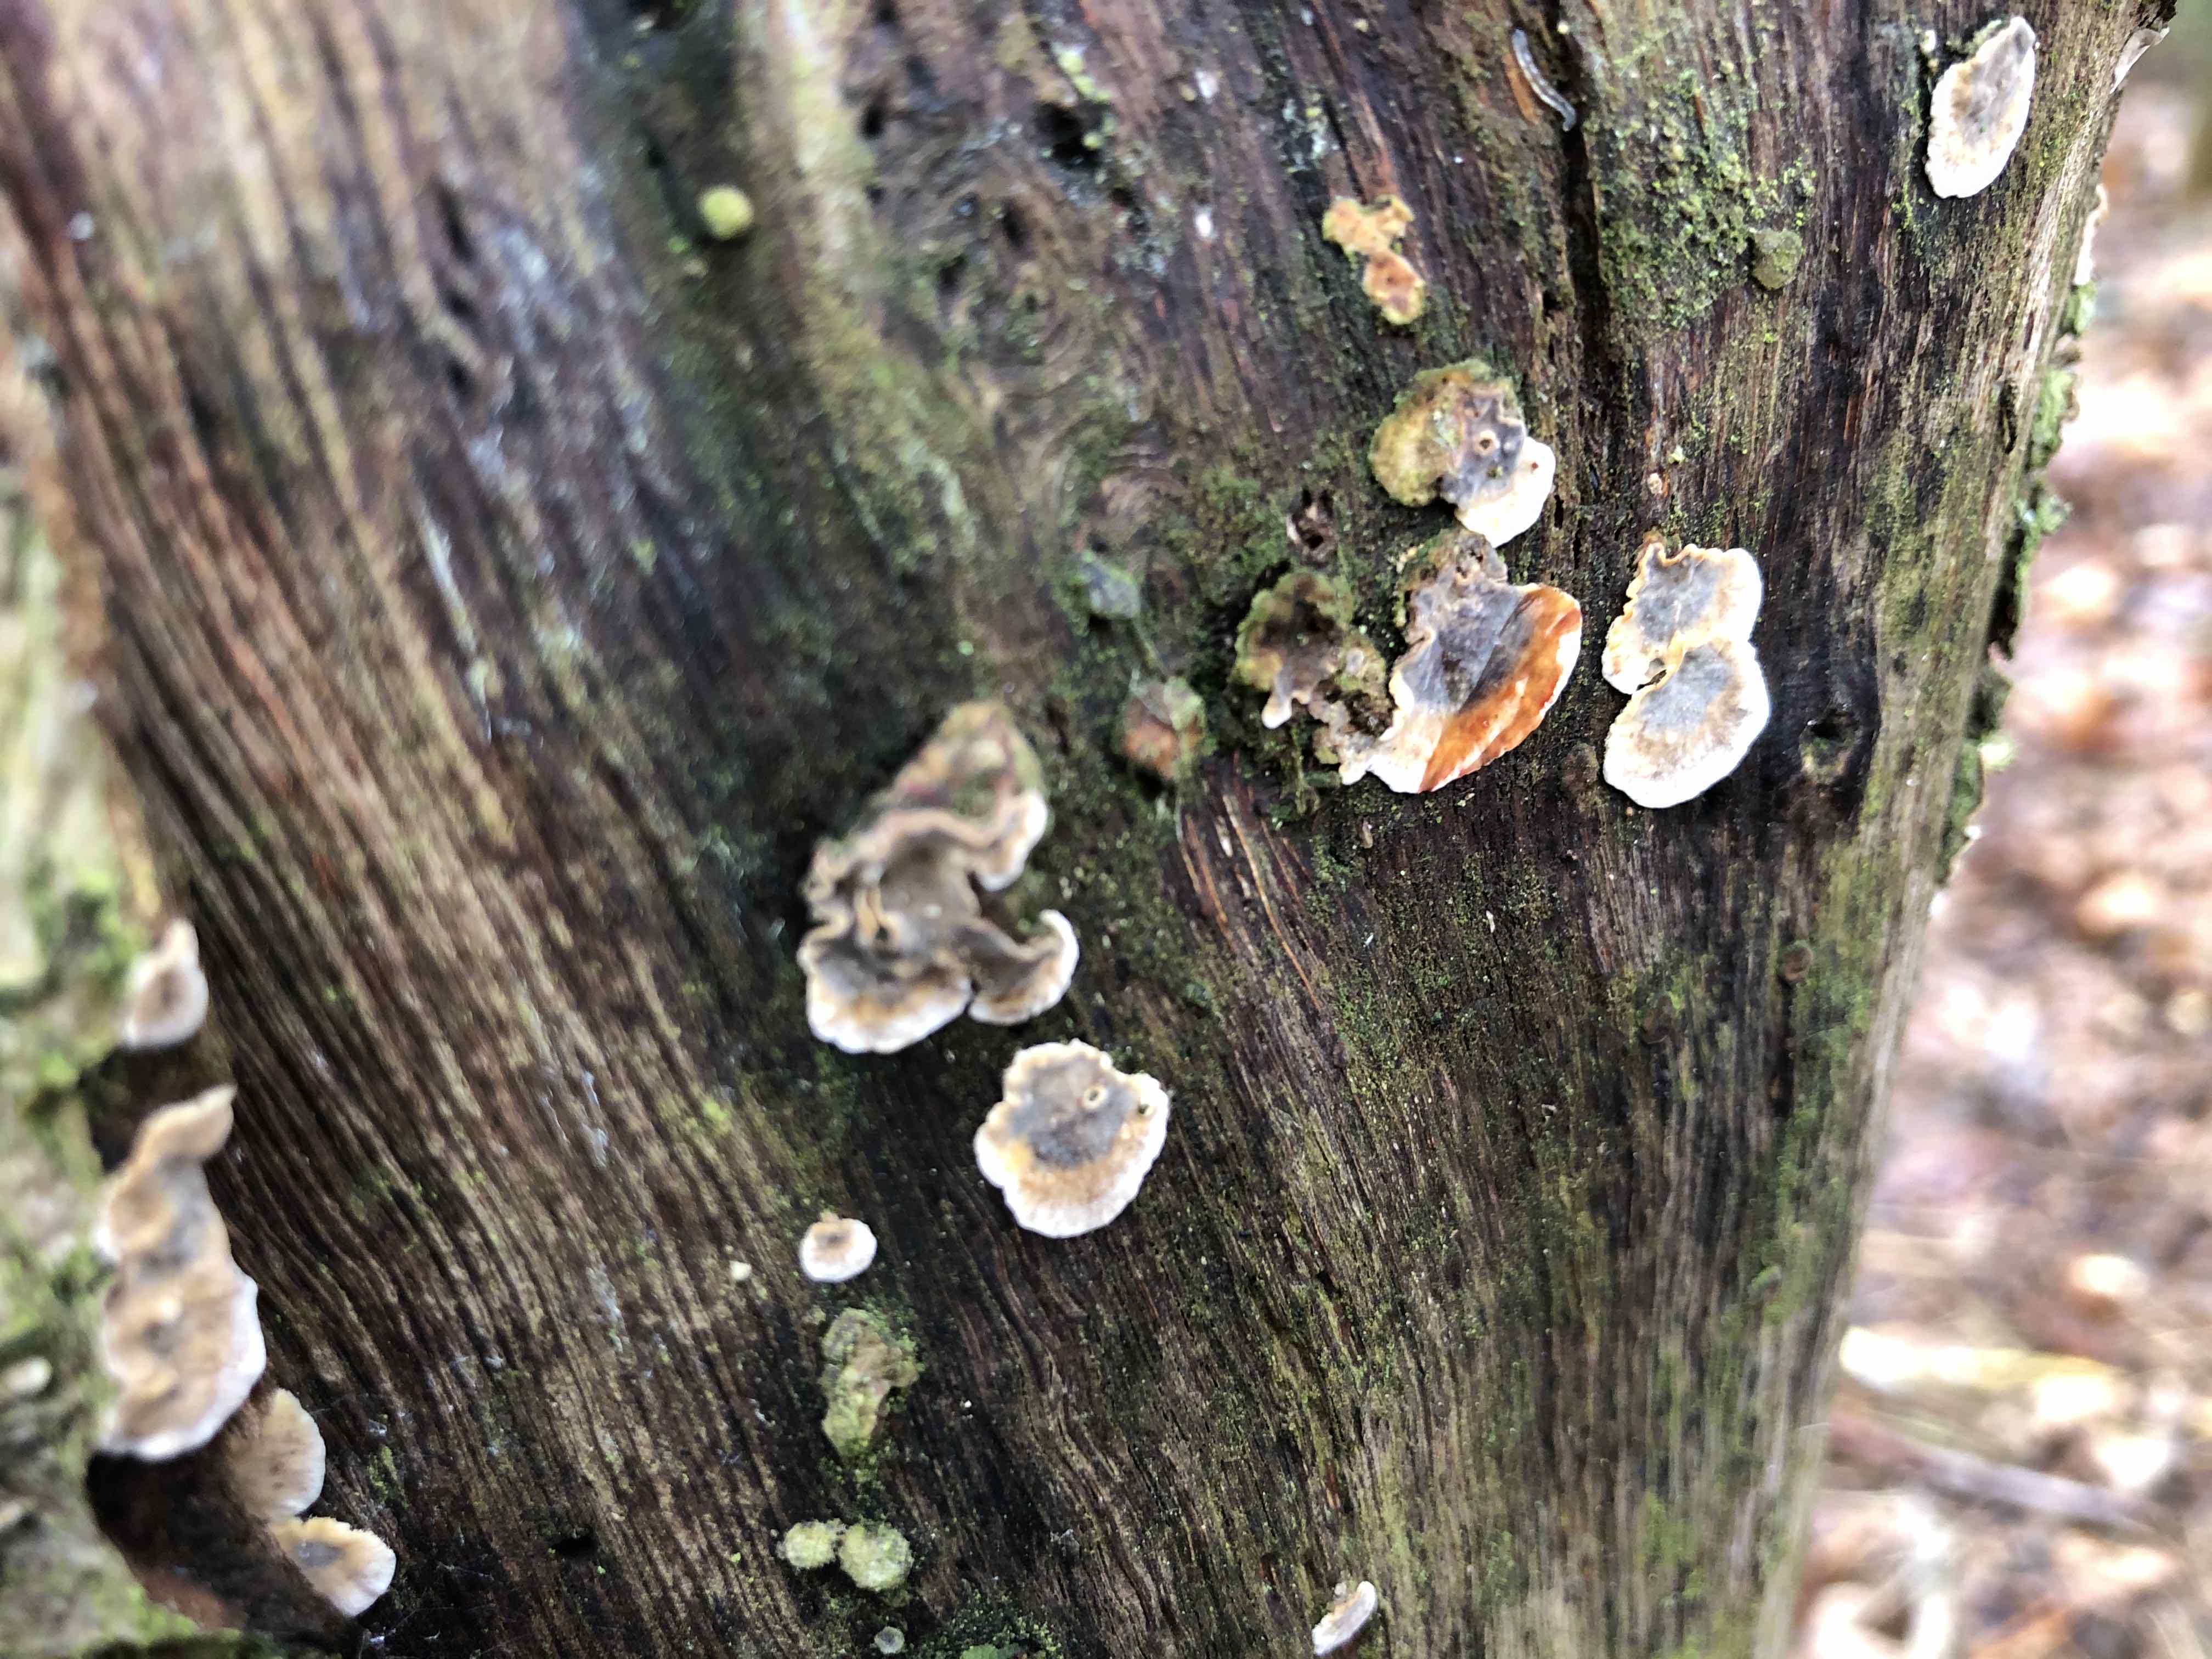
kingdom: Fungi
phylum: Basidiomycota
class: Agaricomycetes
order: Russulales
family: Stereaceae
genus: Stereum
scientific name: Stereum gausapatum
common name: tynd lædersvamp
